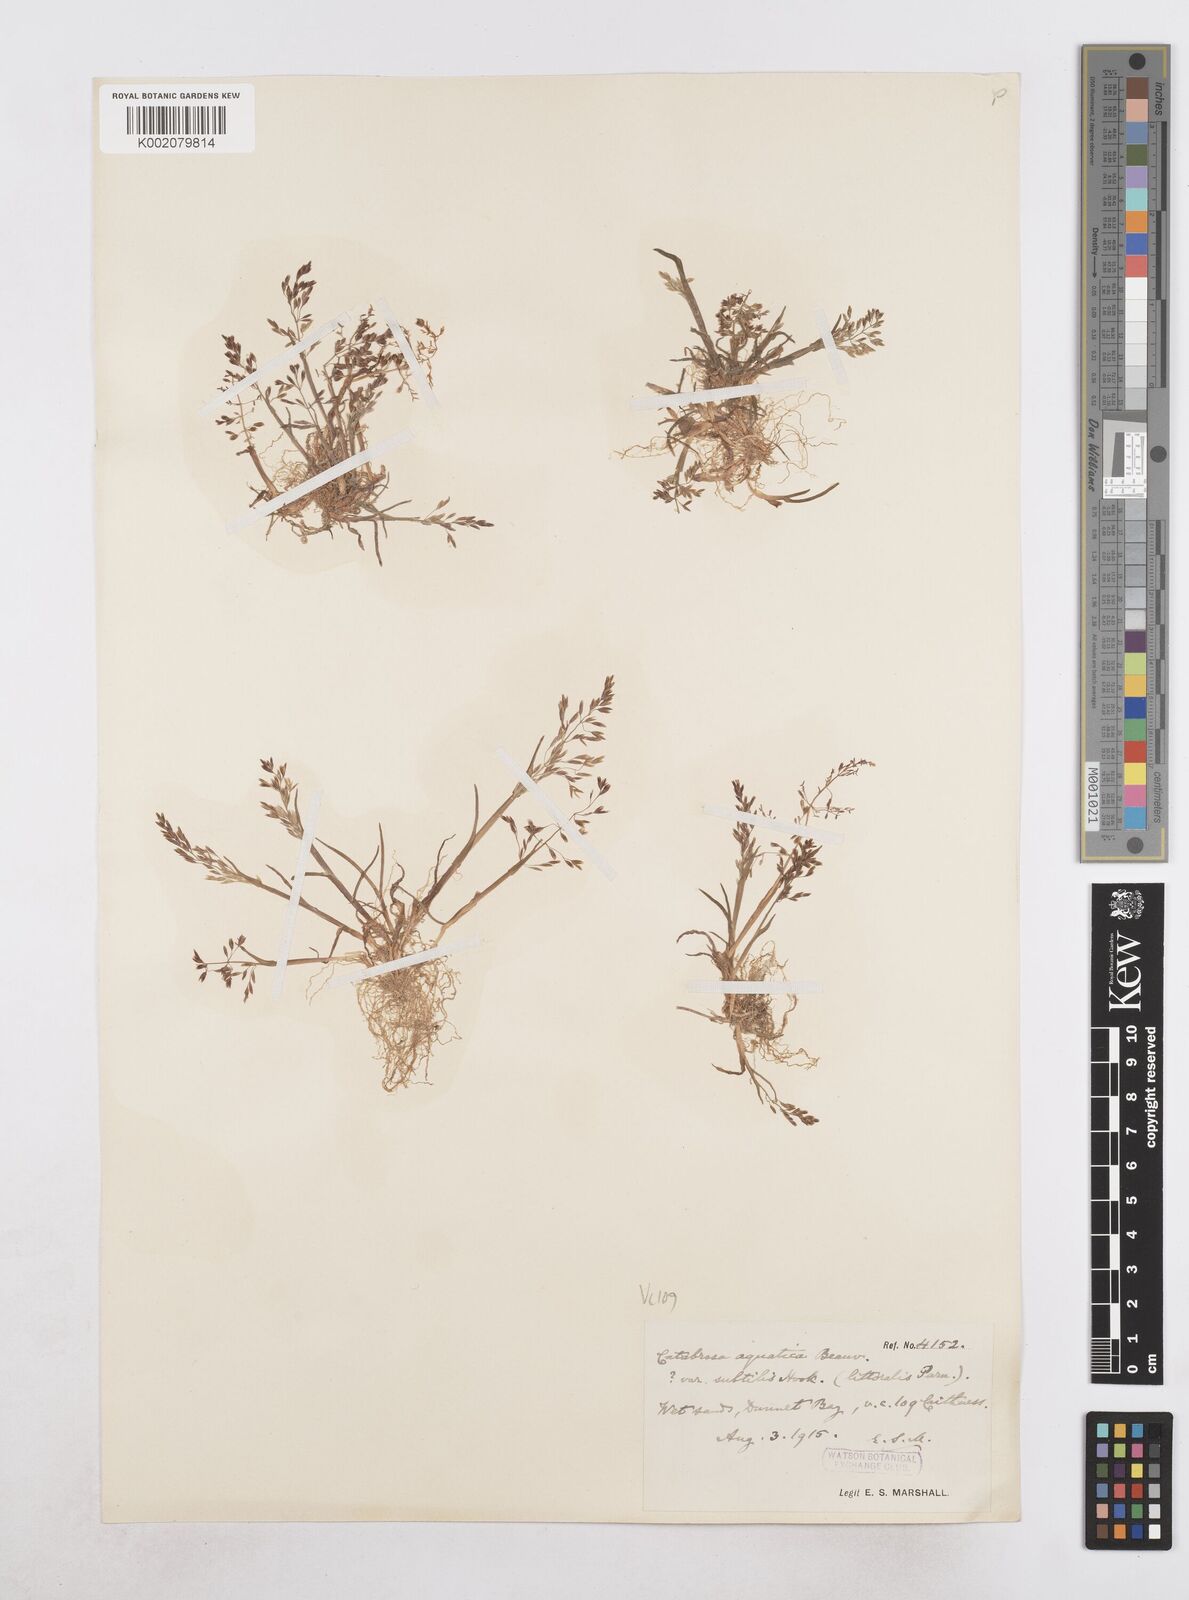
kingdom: Plantae
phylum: Tracheophyta
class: Liliopsida
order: Poales
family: Poaceae
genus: Catabrosa
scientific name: Catabrosa aquatica
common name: Whorl-grass
